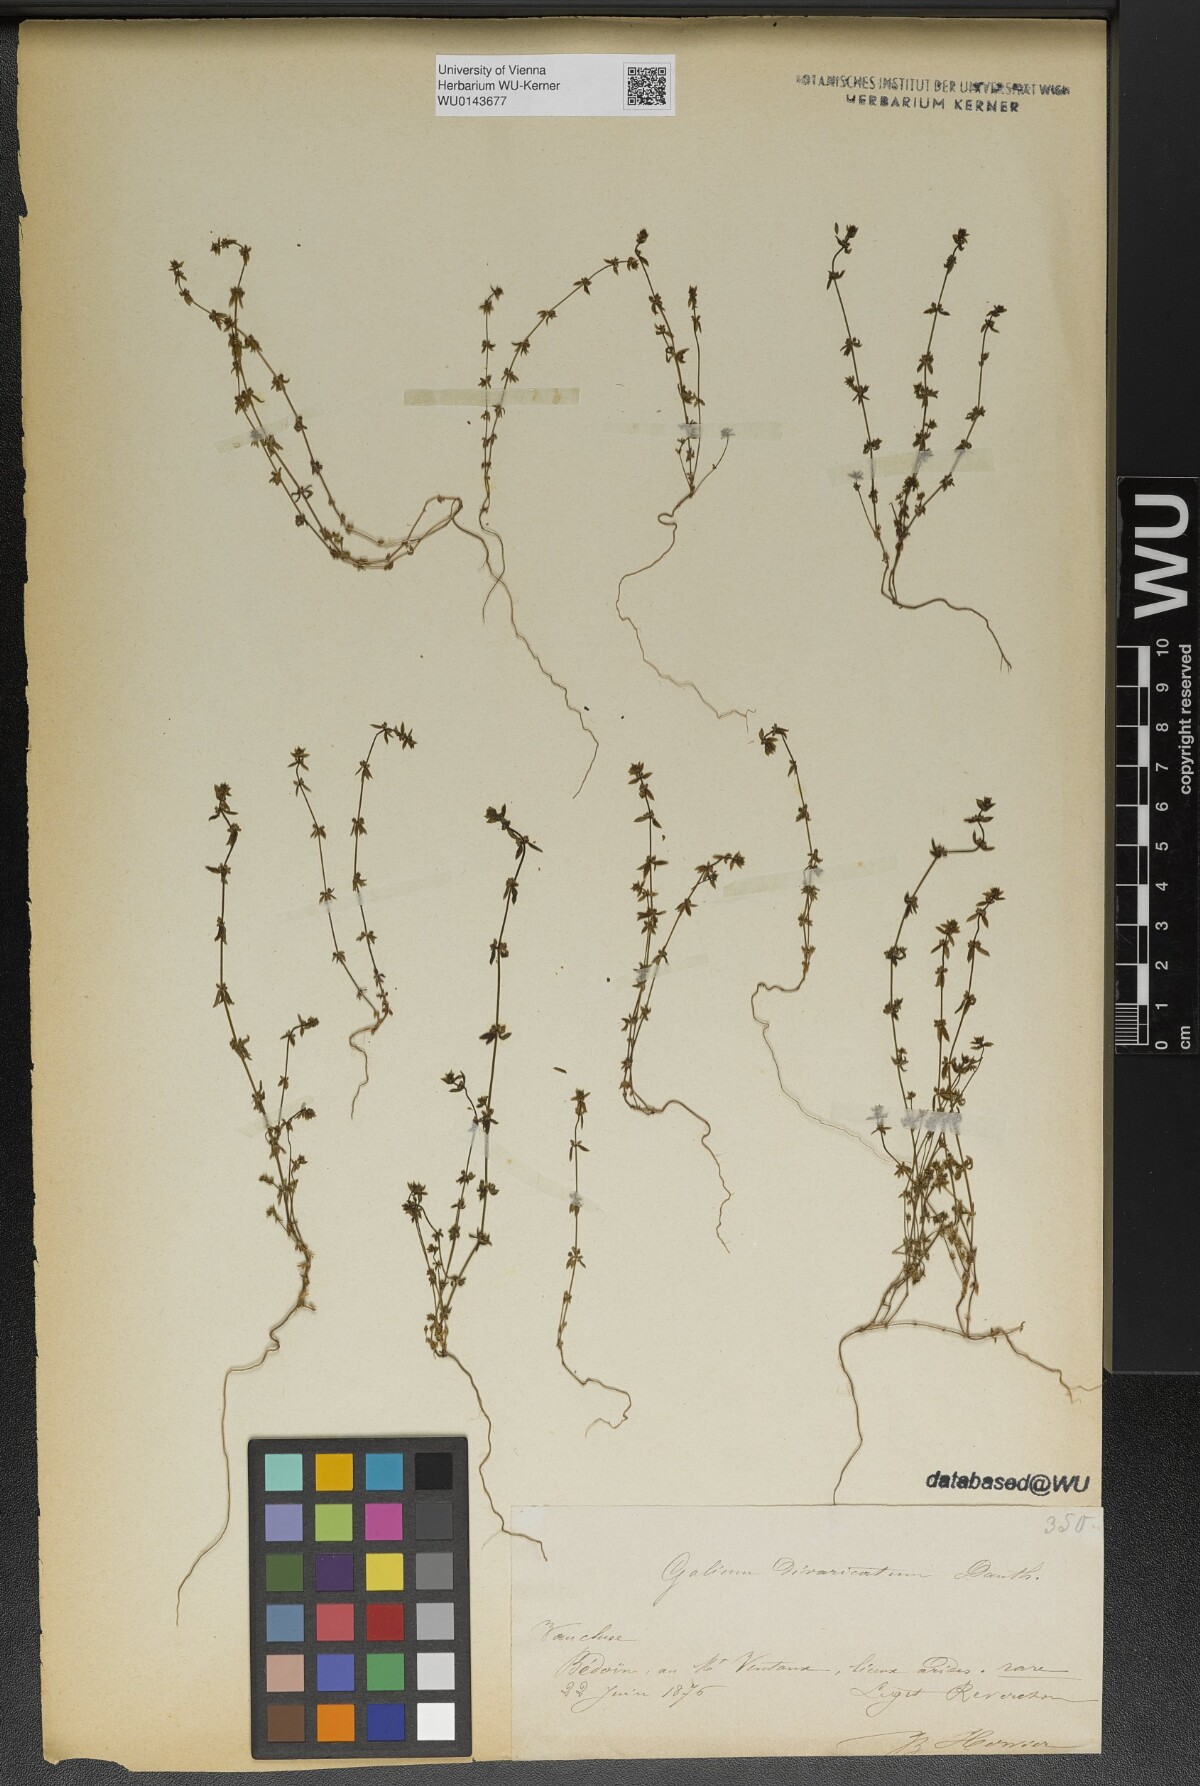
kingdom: Plantae
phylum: Tracheophyta
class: Magnoliopsida
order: Gentianales
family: Rubiaceae
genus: Galium
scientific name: Galium parisiense
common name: Wall bedstraw
